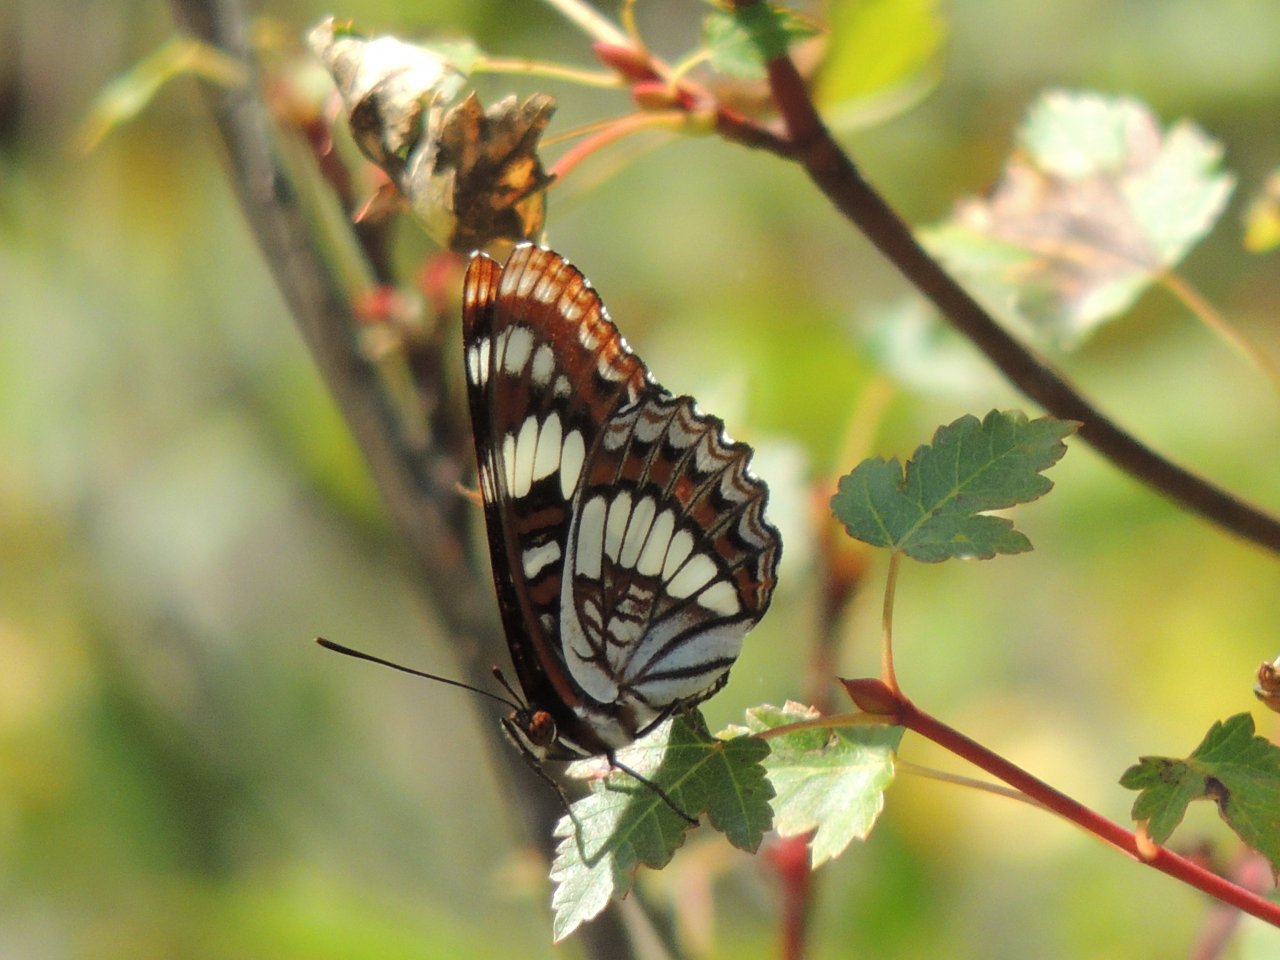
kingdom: Animalia
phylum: Arthropoda
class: Insecta
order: Lepidoptera
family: Nymphalidae
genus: Limenitis
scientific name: Limenitis lorquini
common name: Lorquin's Admiral
